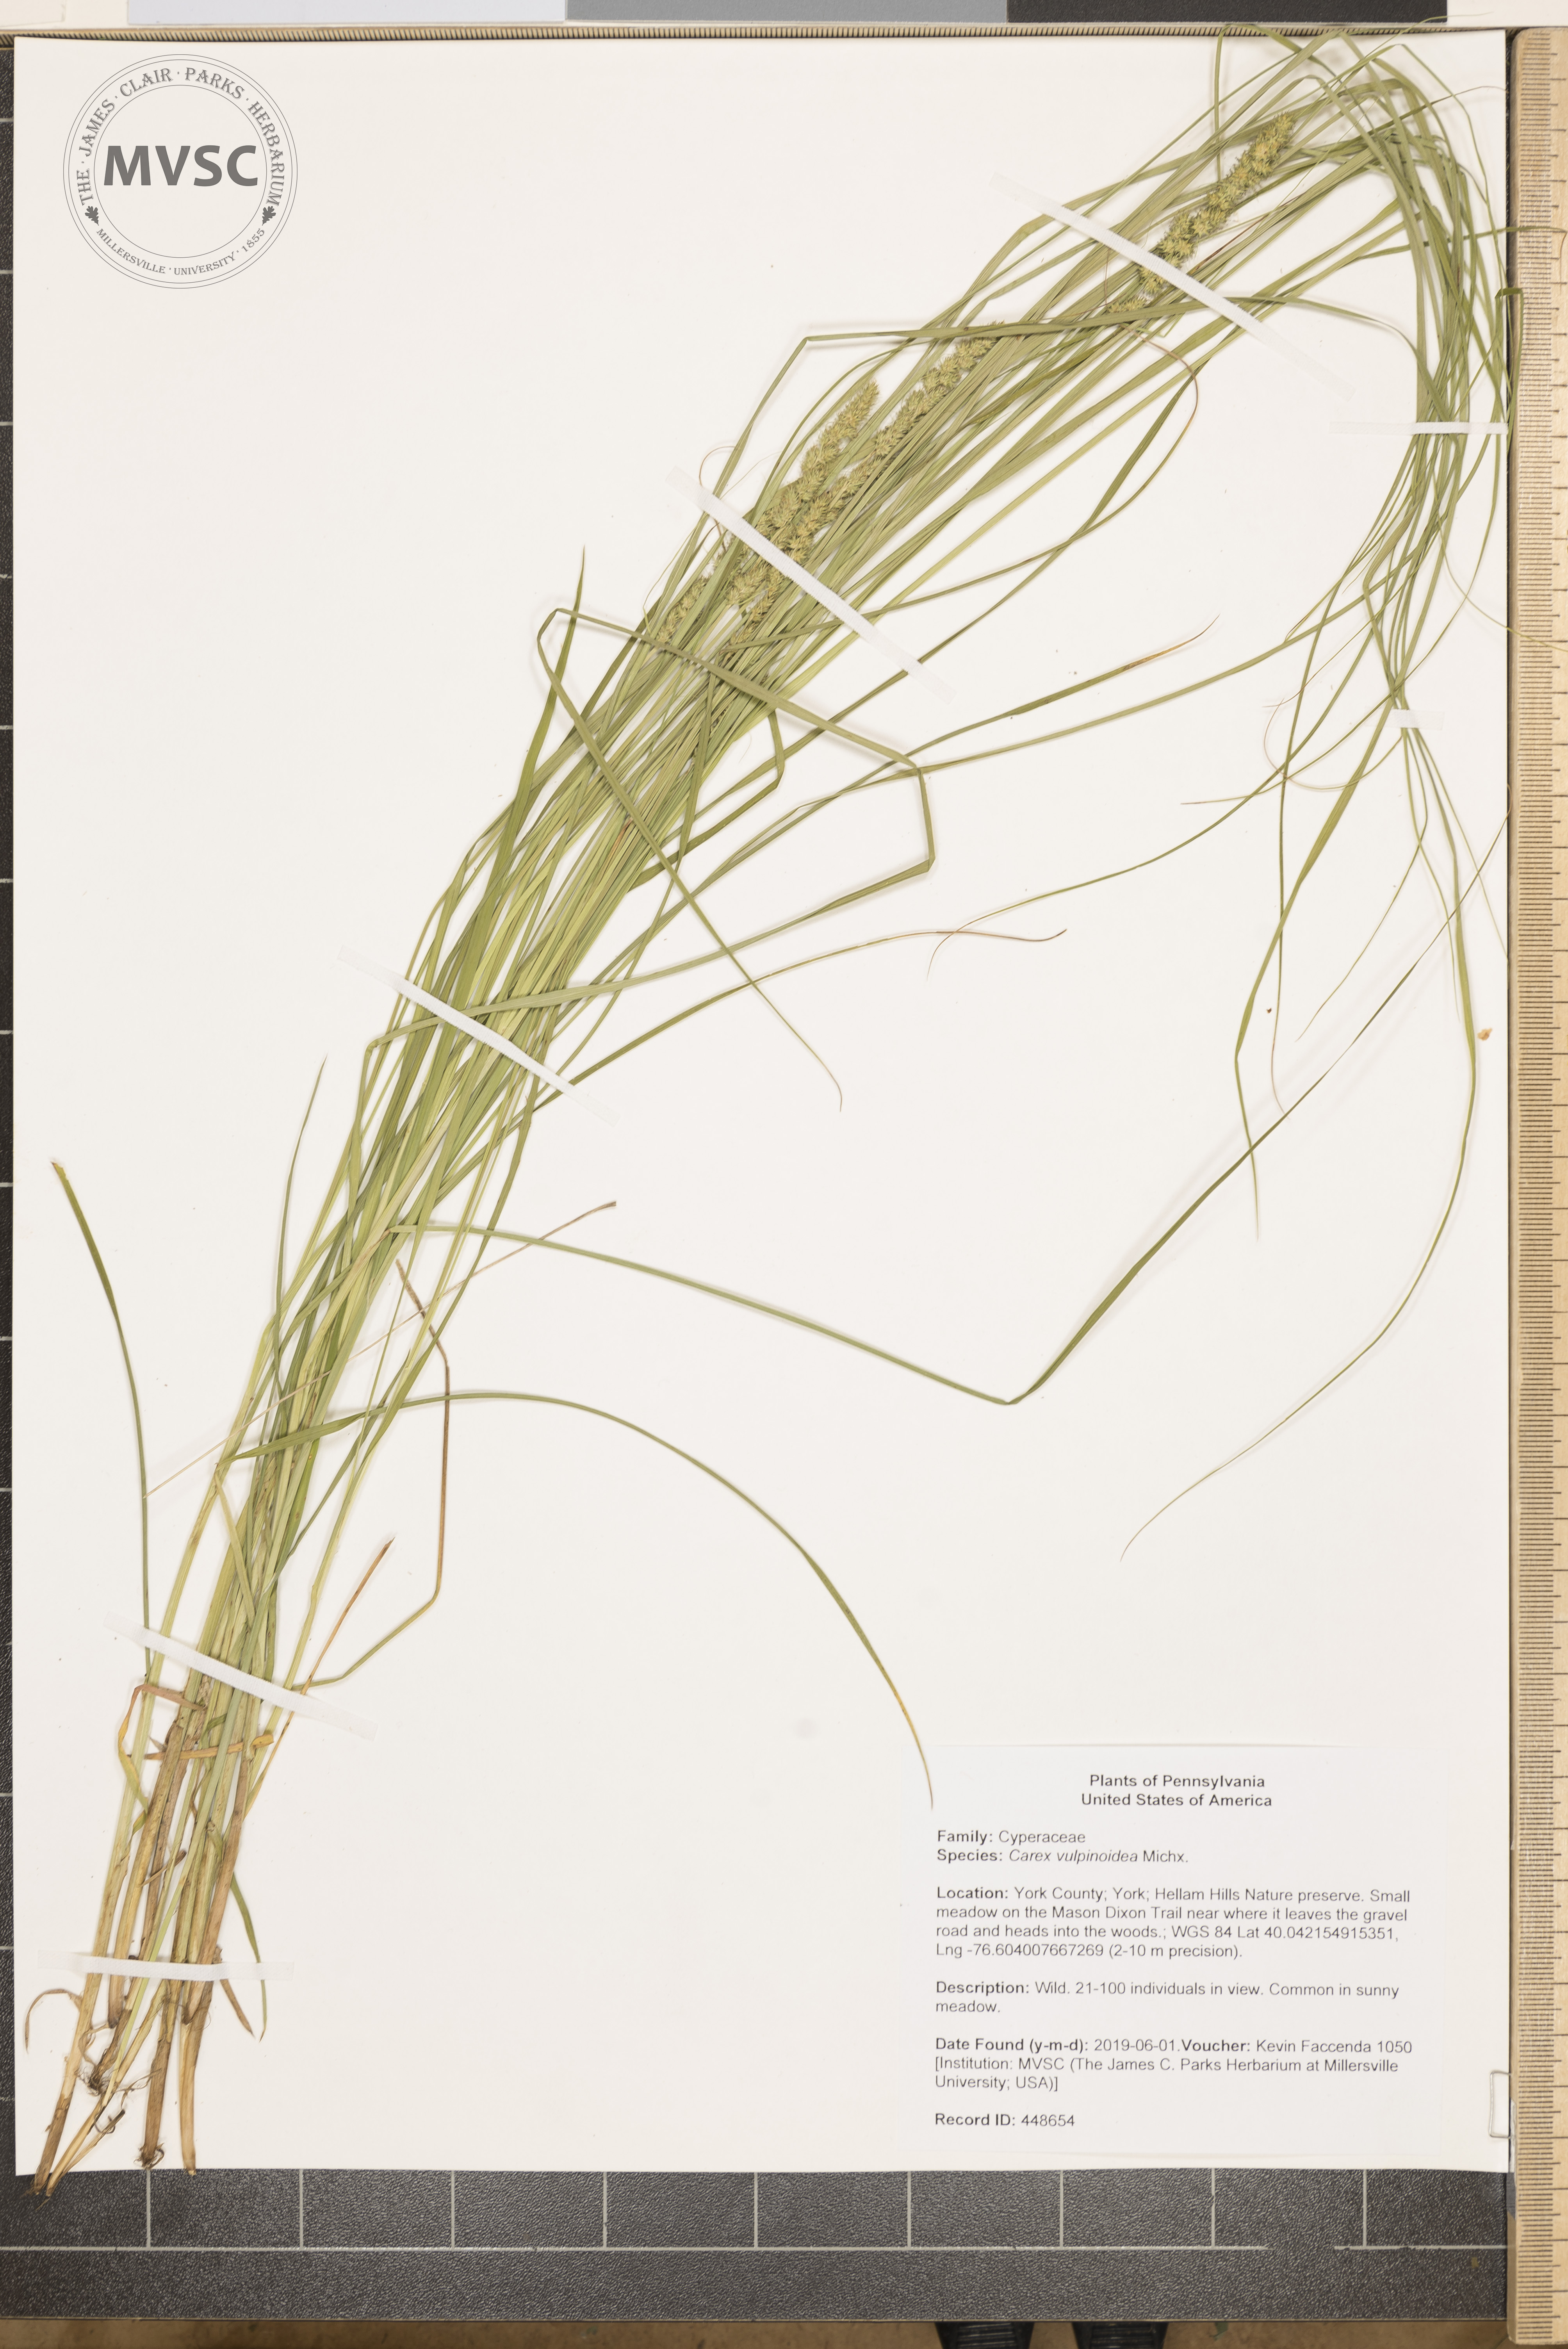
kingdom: Plantae
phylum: Tracheophyta
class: Liliopsida
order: Poales
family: Cyperaceae
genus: Carex
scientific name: Carex vulpinoidea
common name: American fox-sedge
